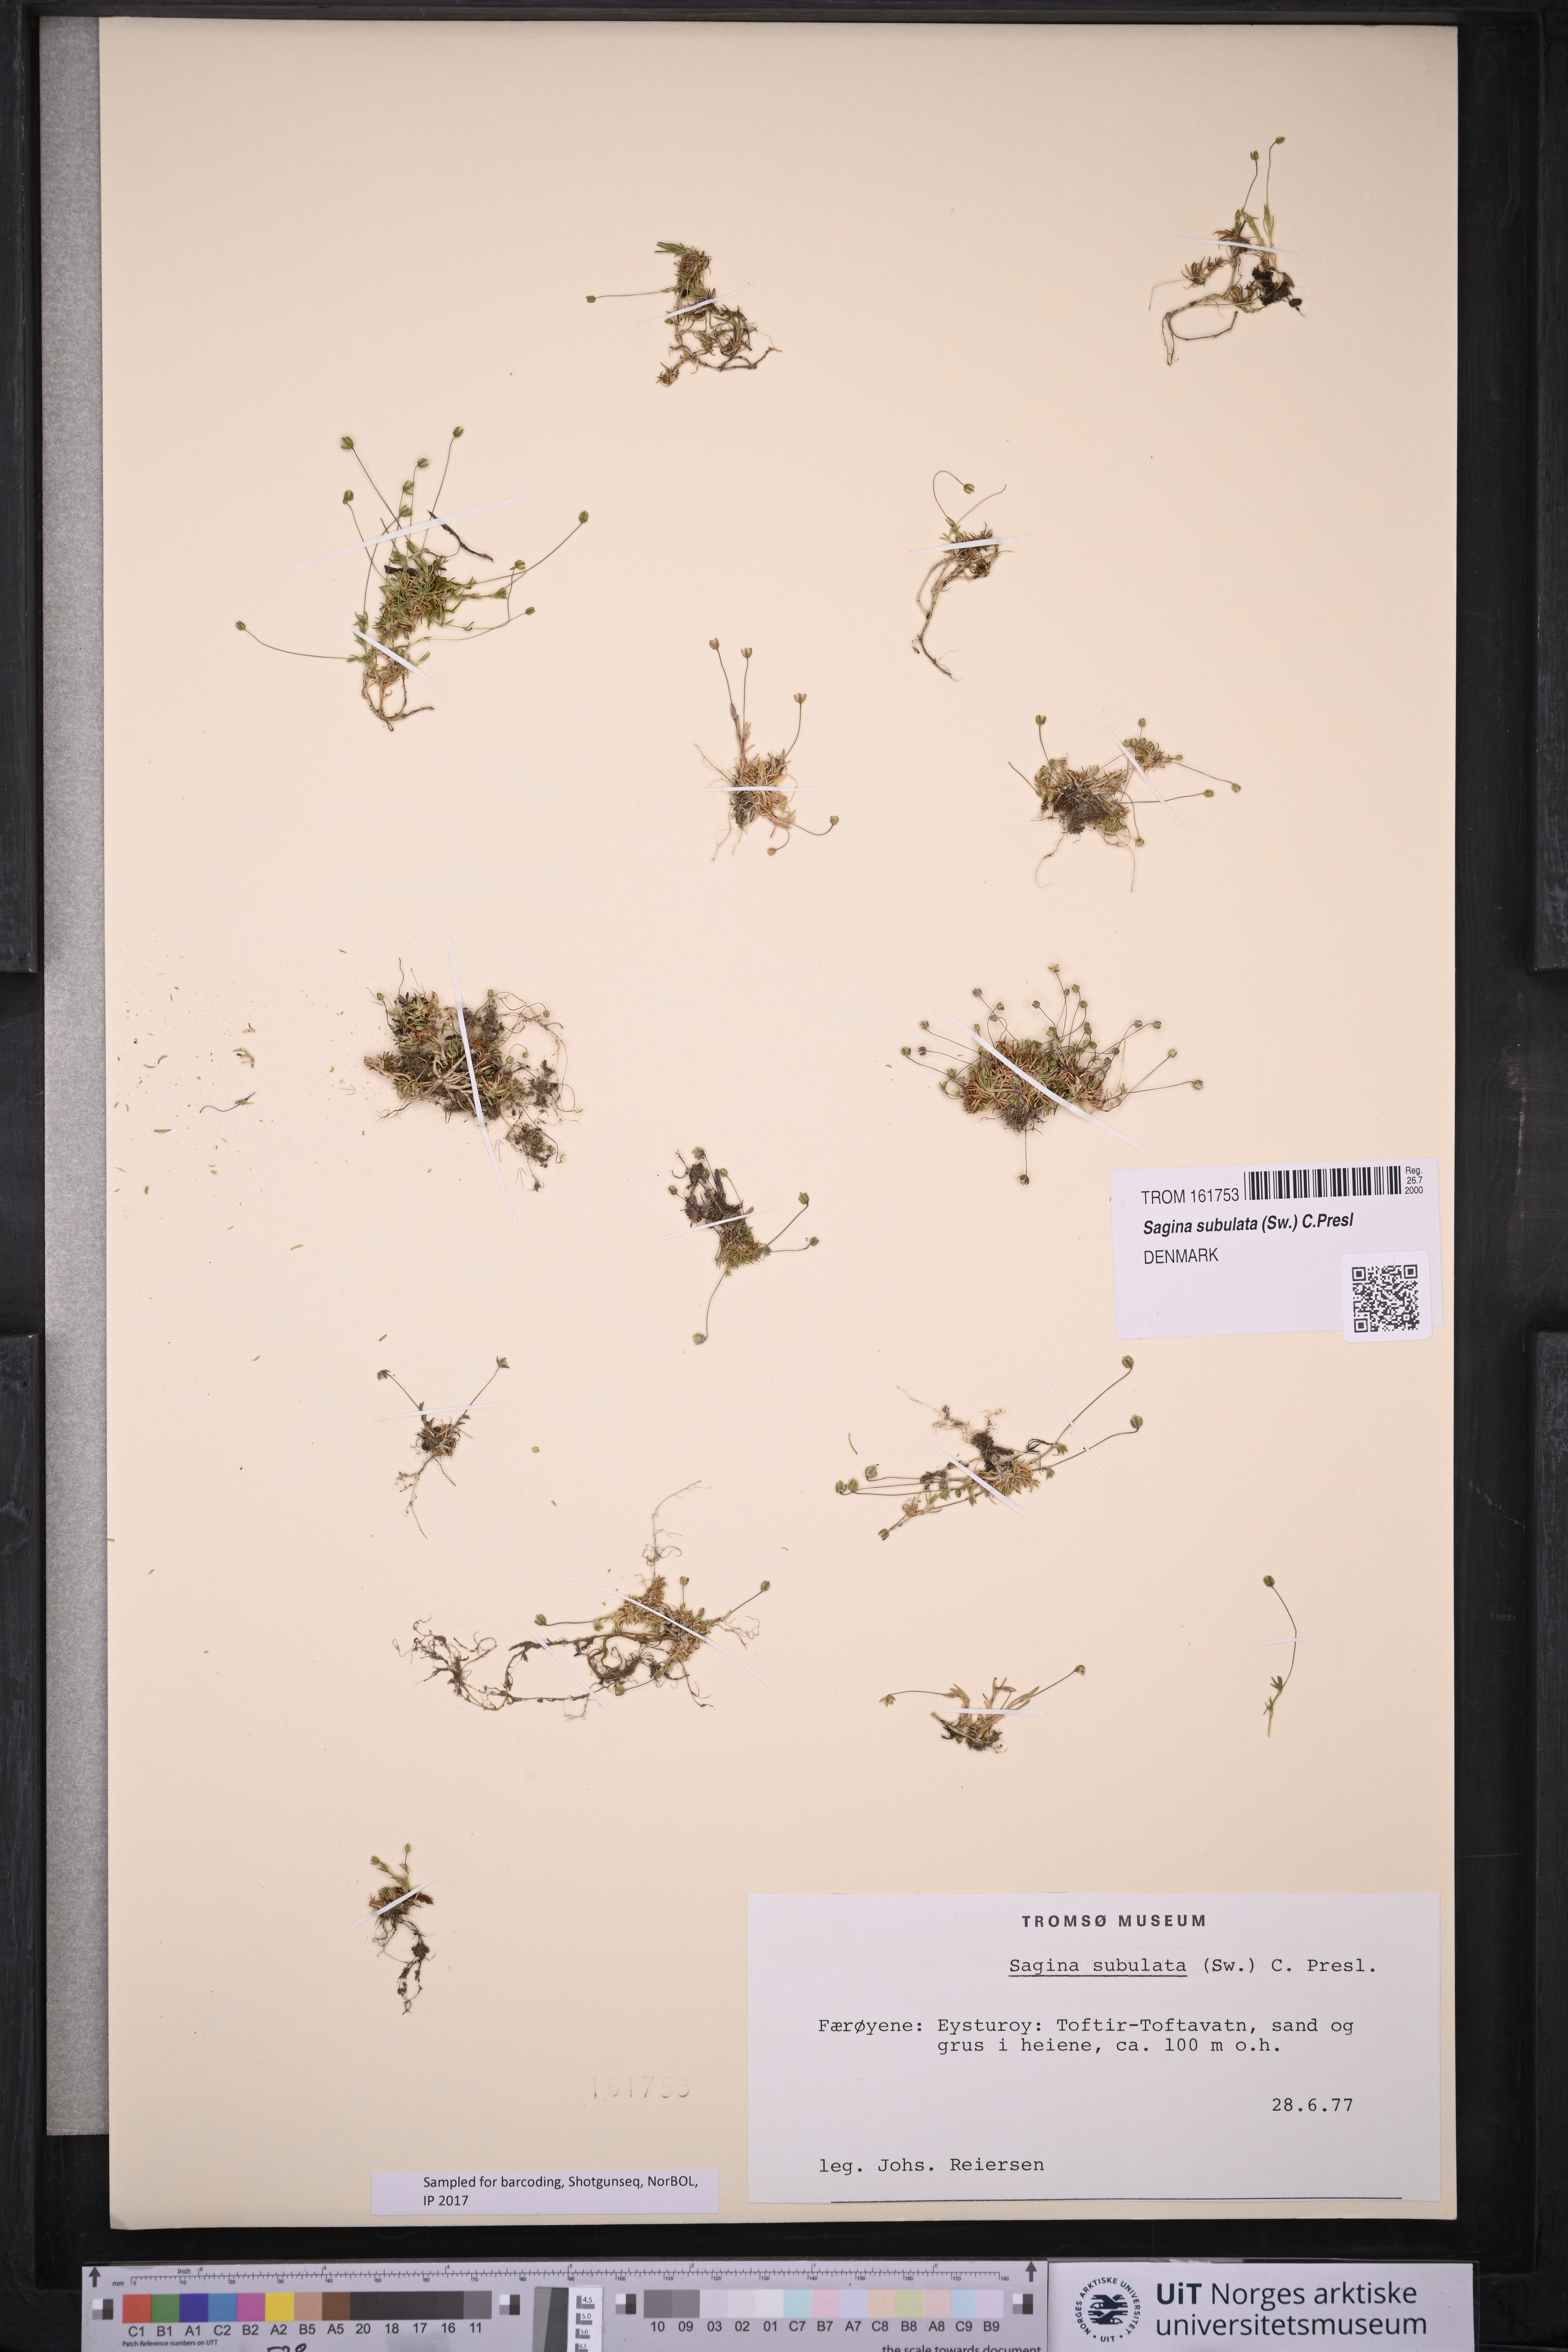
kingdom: Plantae
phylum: Tracheophyta
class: Magnoliopsida
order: Caryophyllales
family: Caryophyllaceae
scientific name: Caryophyllaceae
